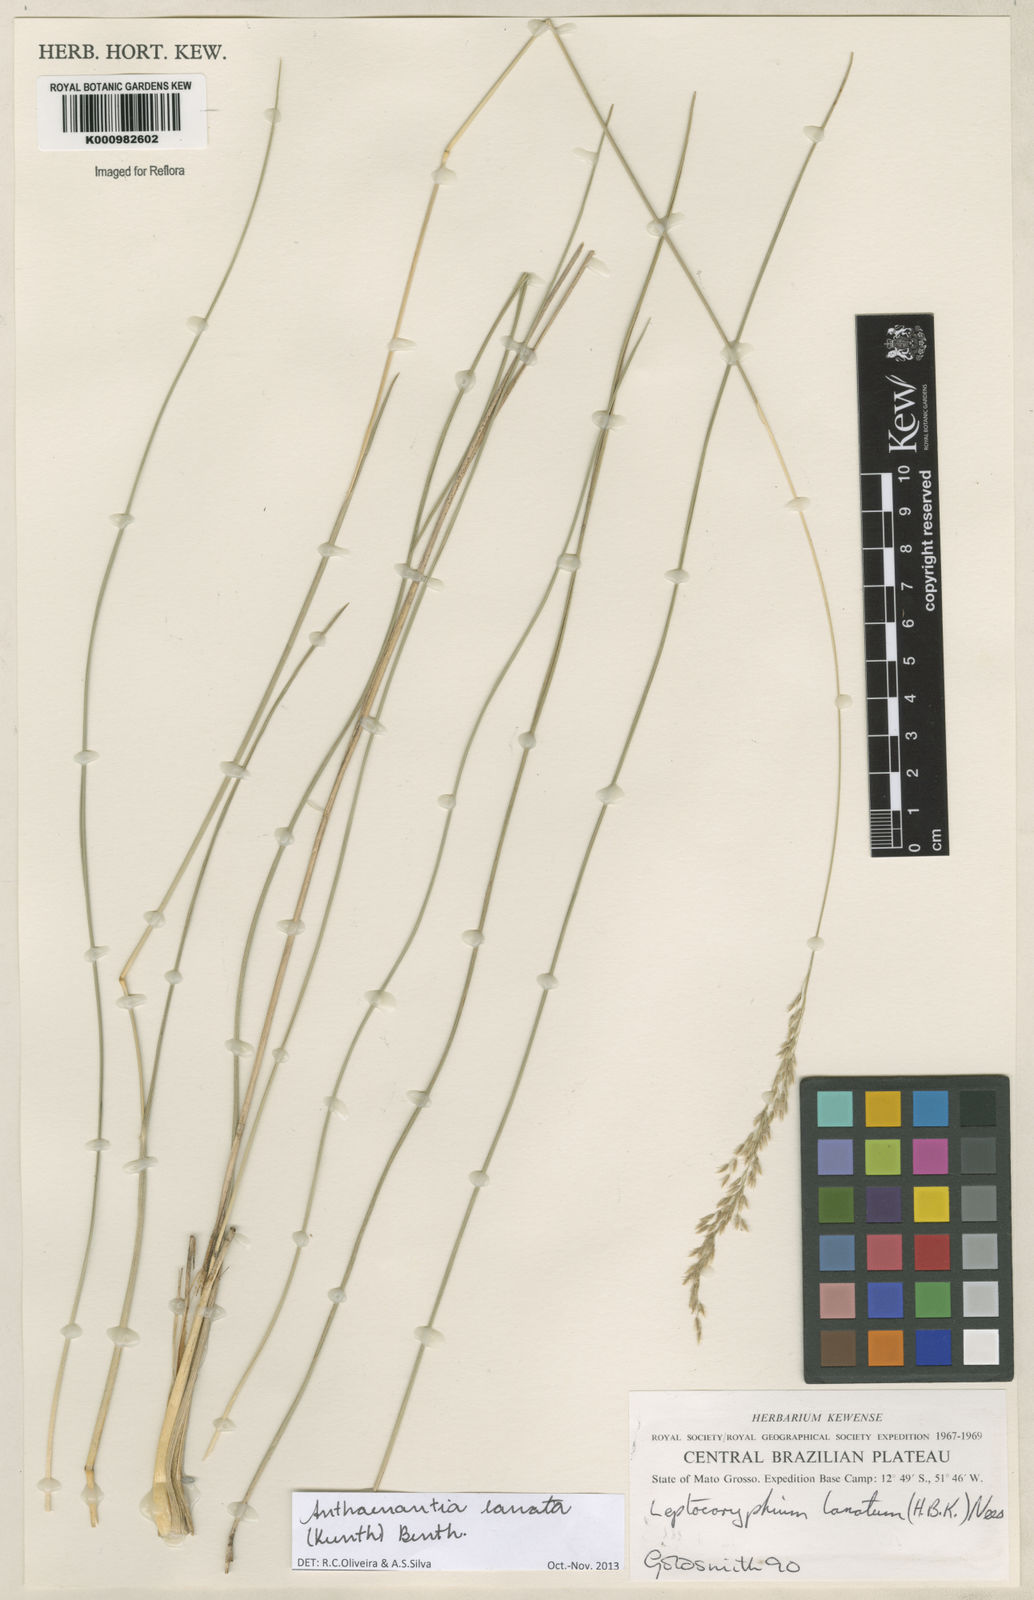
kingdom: Plantae
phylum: Tracheophyta
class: Liliopsida
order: Poales
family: Poaceae
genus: Anthenantia
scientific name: Anthenantia lanata
